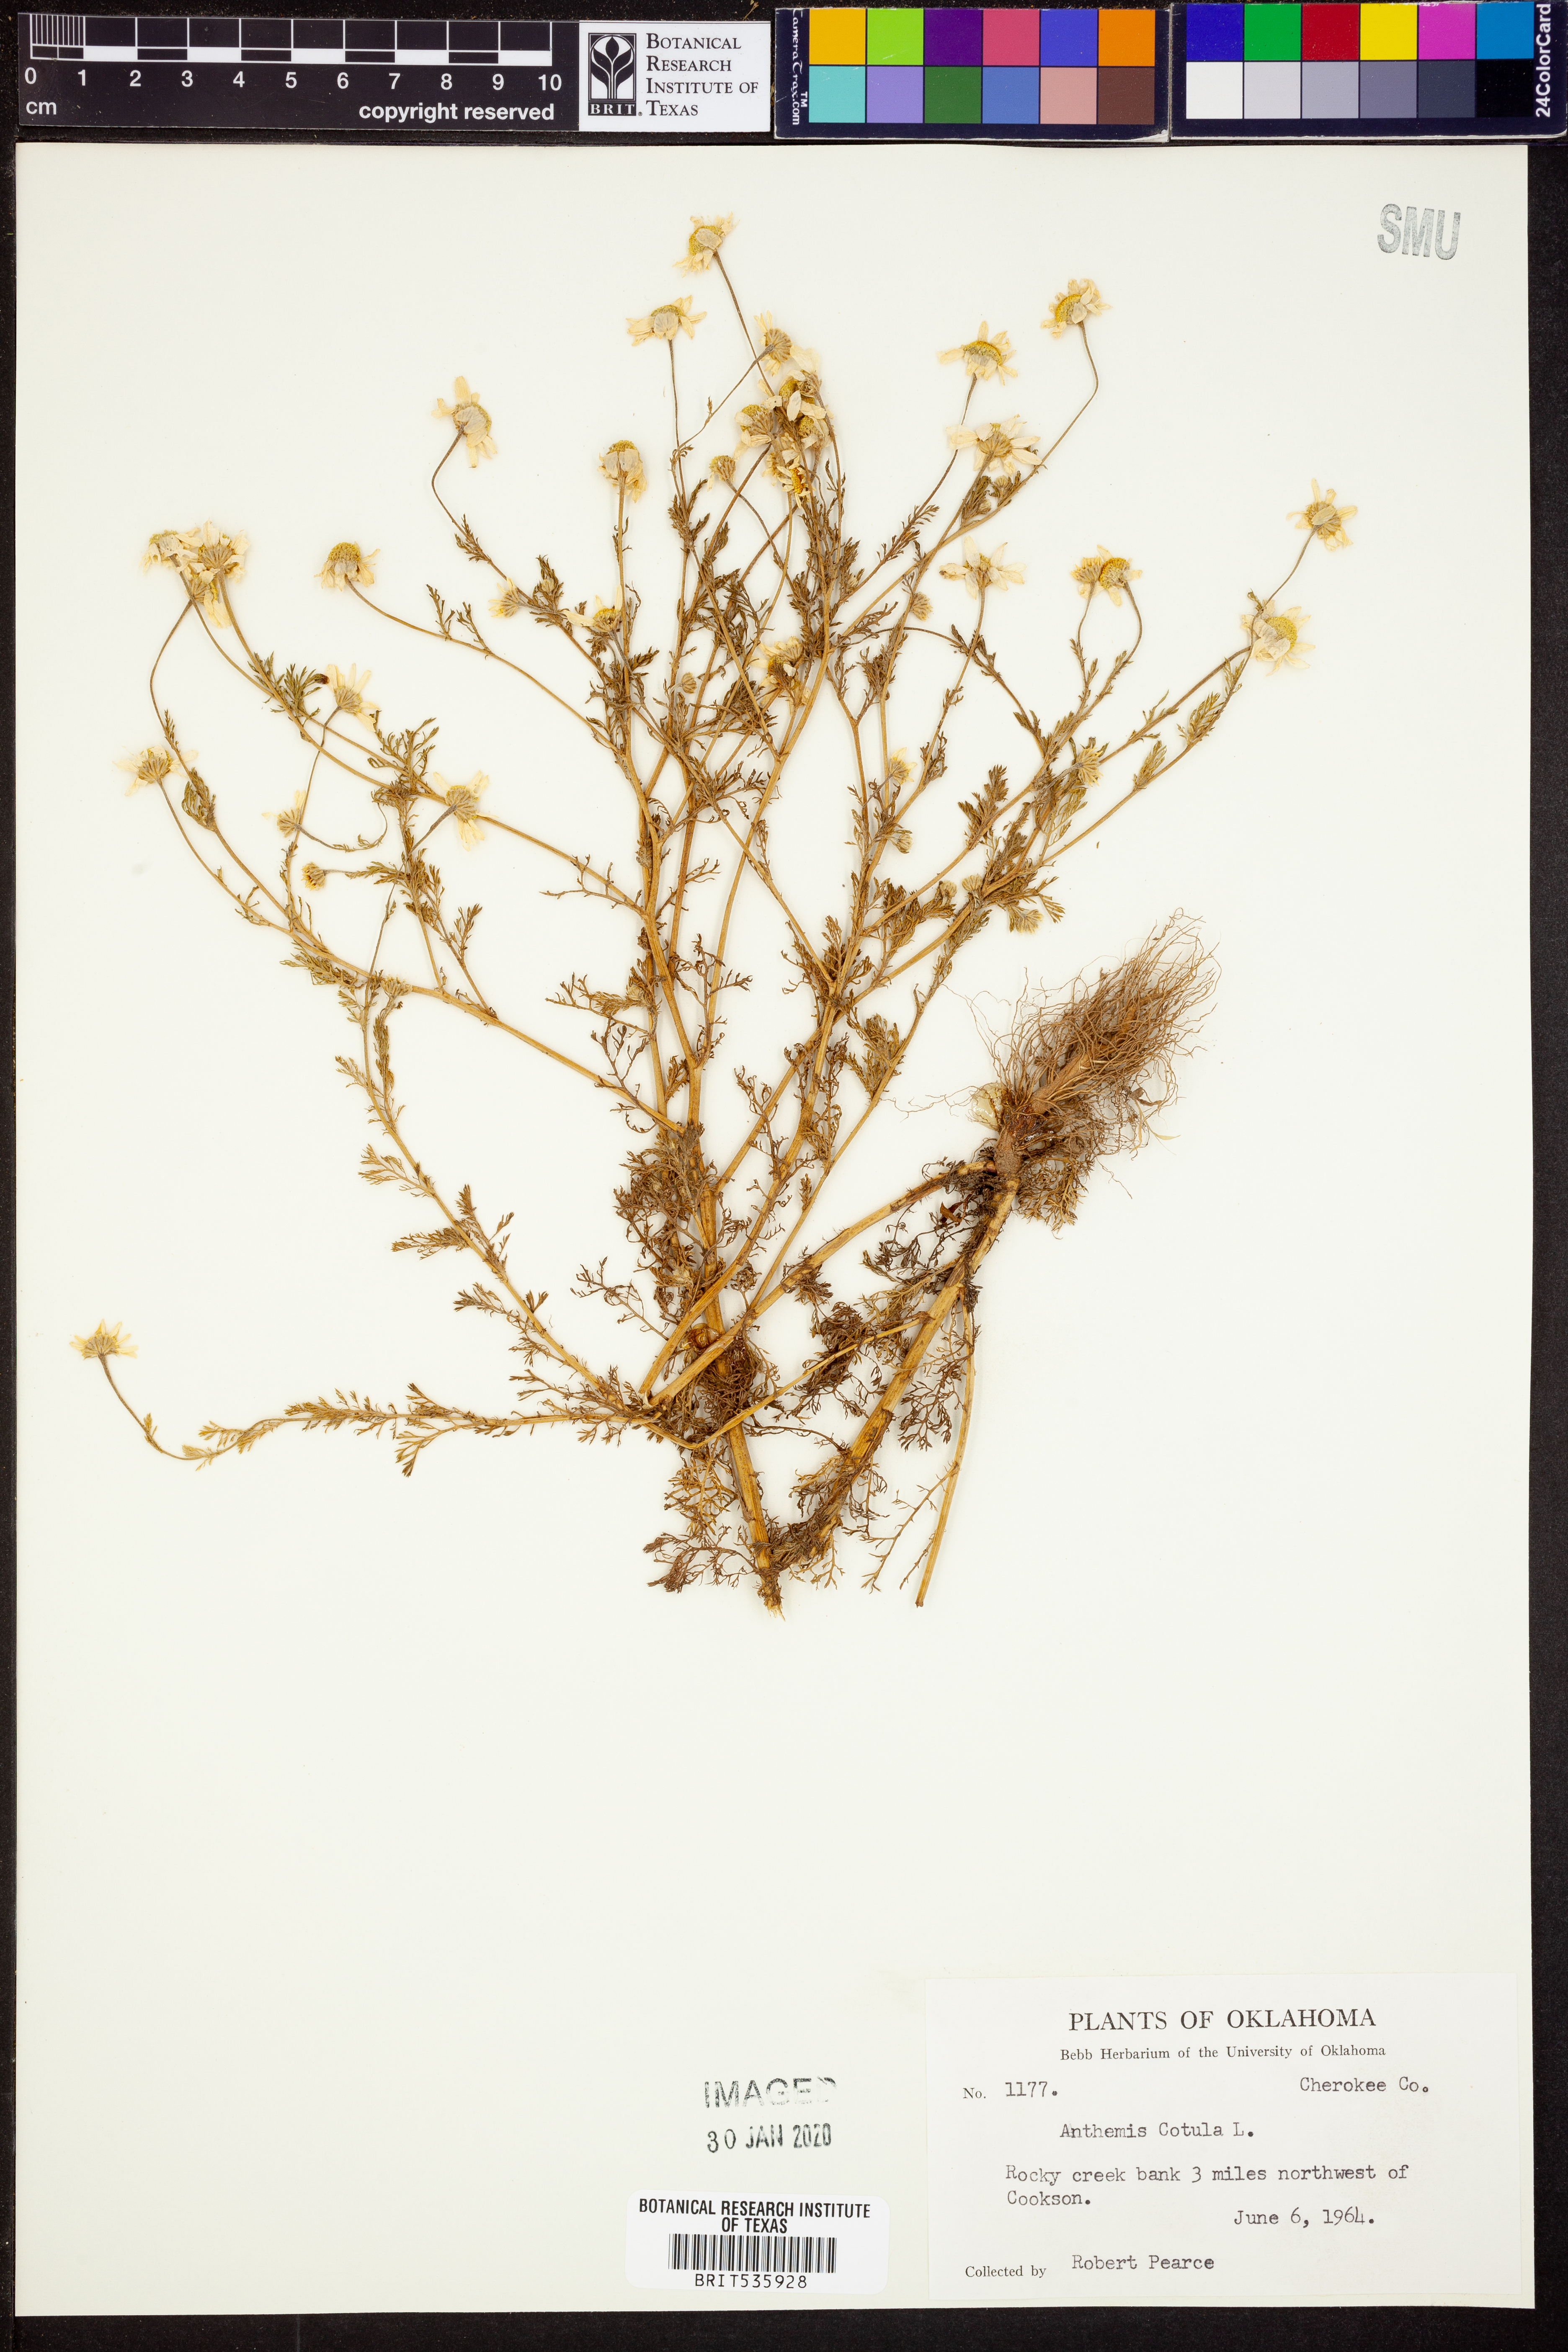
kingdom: Plantae
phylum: Tracheophyta
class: Magnoliopsida
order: Asterales
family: Asteraceae
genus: Anthemis
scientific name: Anthemis cotula
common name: Stinking chamomile
